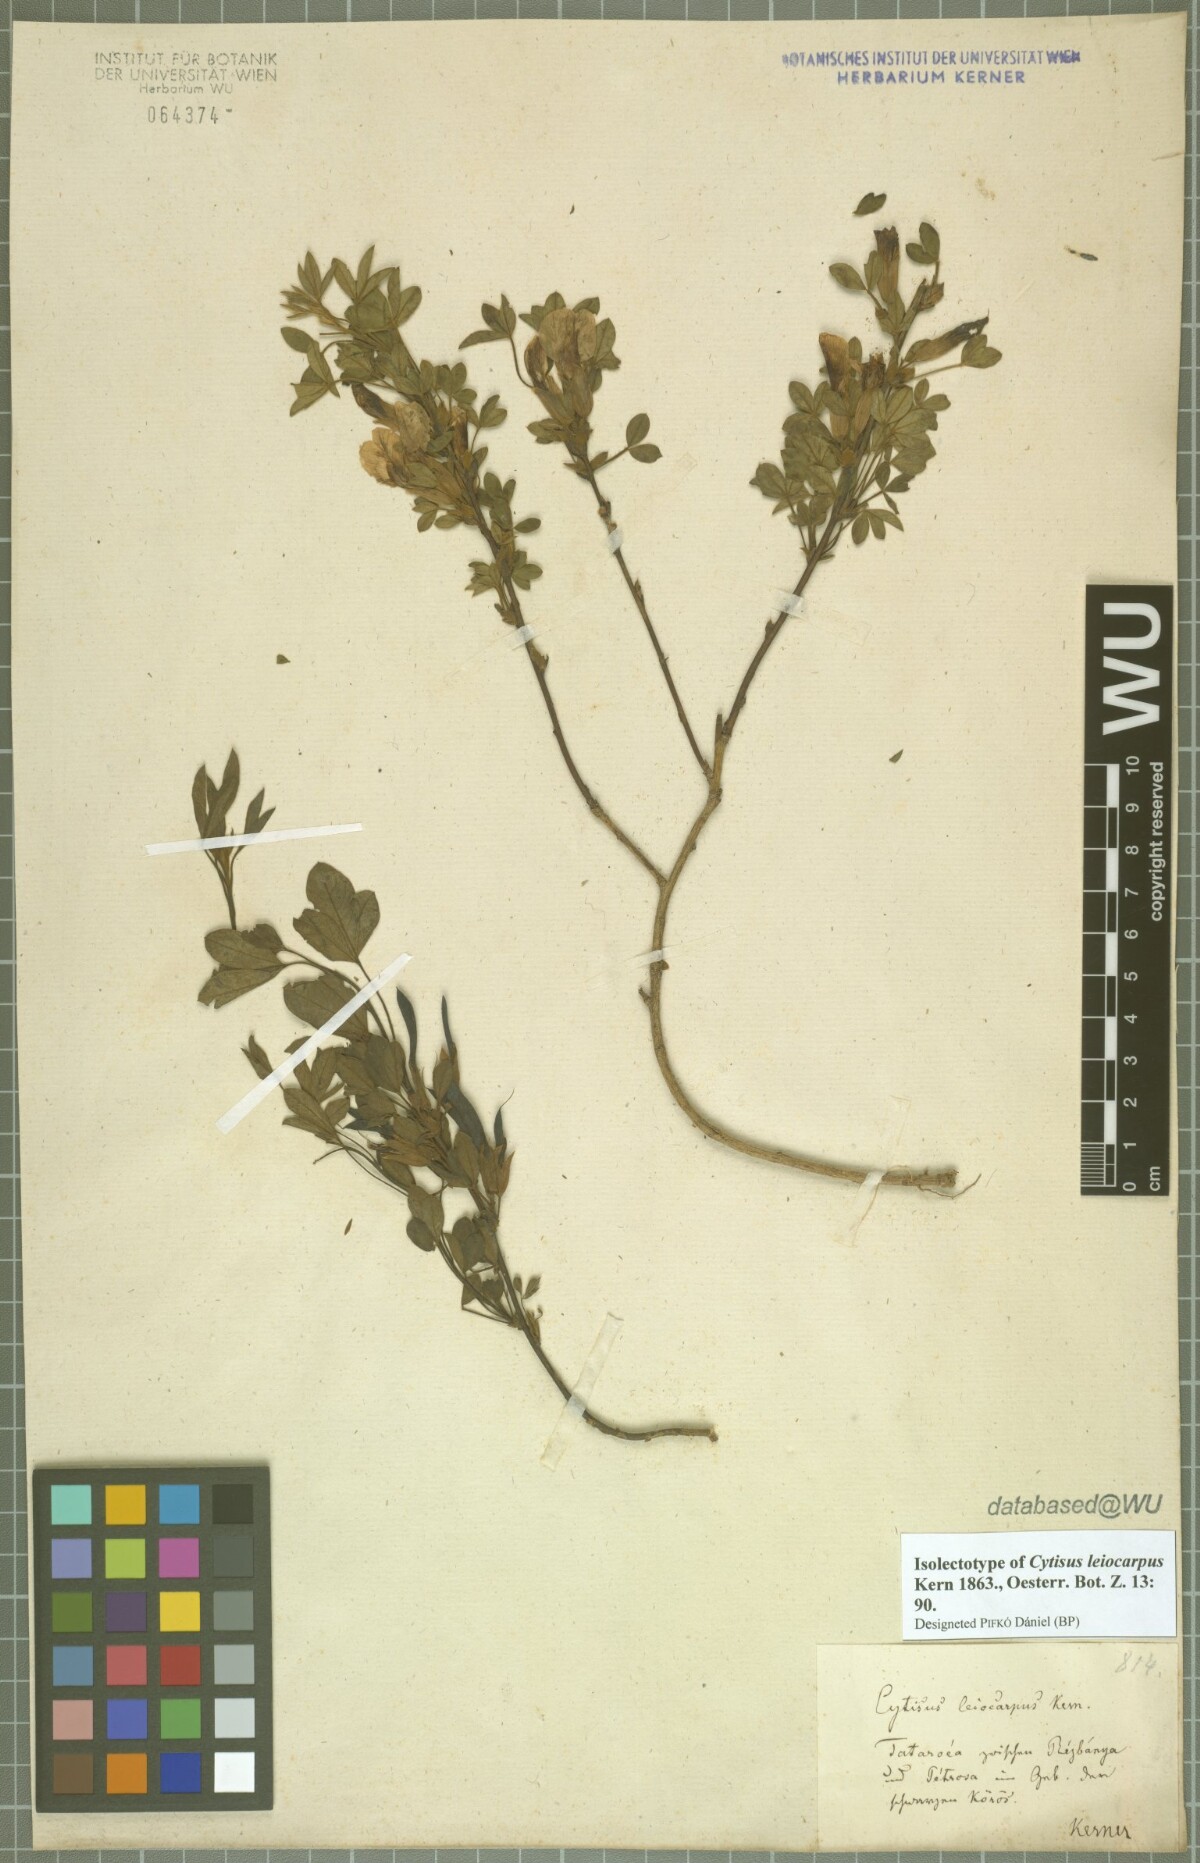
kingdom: Plantae
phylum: Tracheophyta
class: Magnoliopsida
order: Fabales
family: Fabaceae
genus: Chamaecytisus
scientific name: Chamaecytisus leiocarpus
